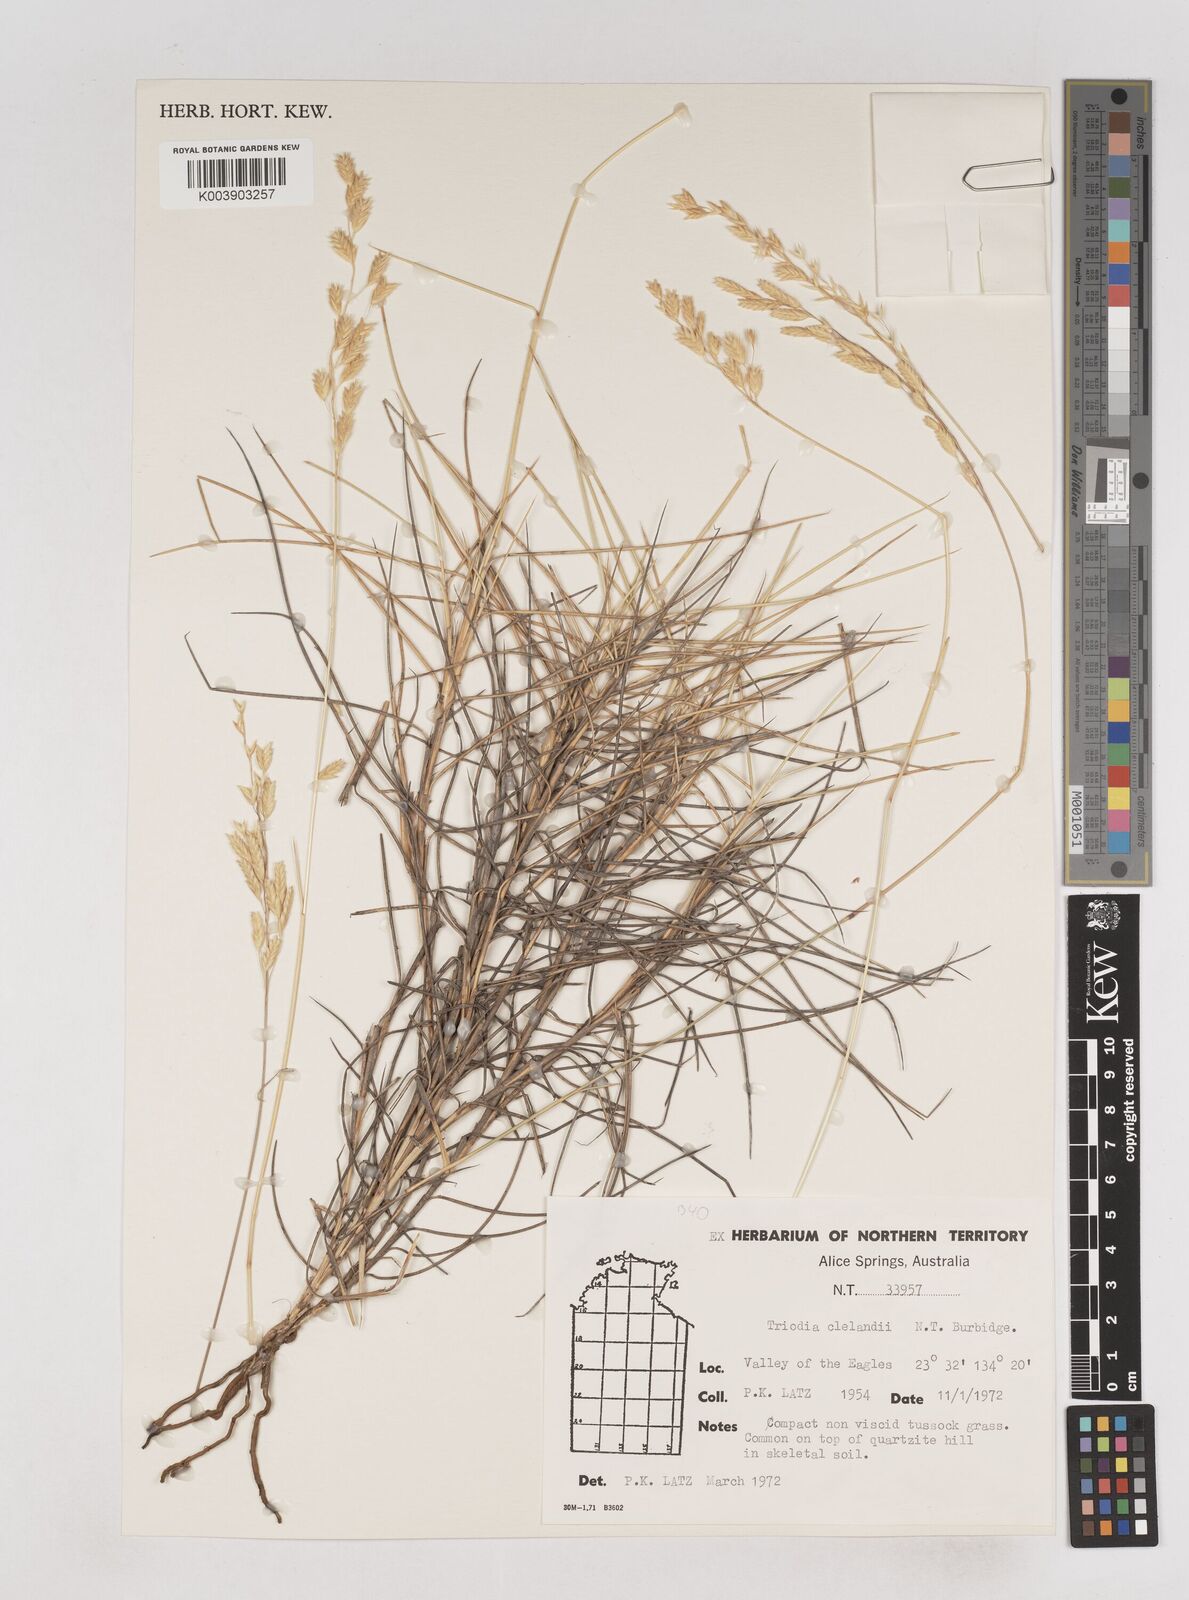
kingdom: Plantae
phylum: Tracheophyta
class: Liliopsida
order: Poales
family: Poaceae
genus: Triodia
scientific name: Triodia brizoides
